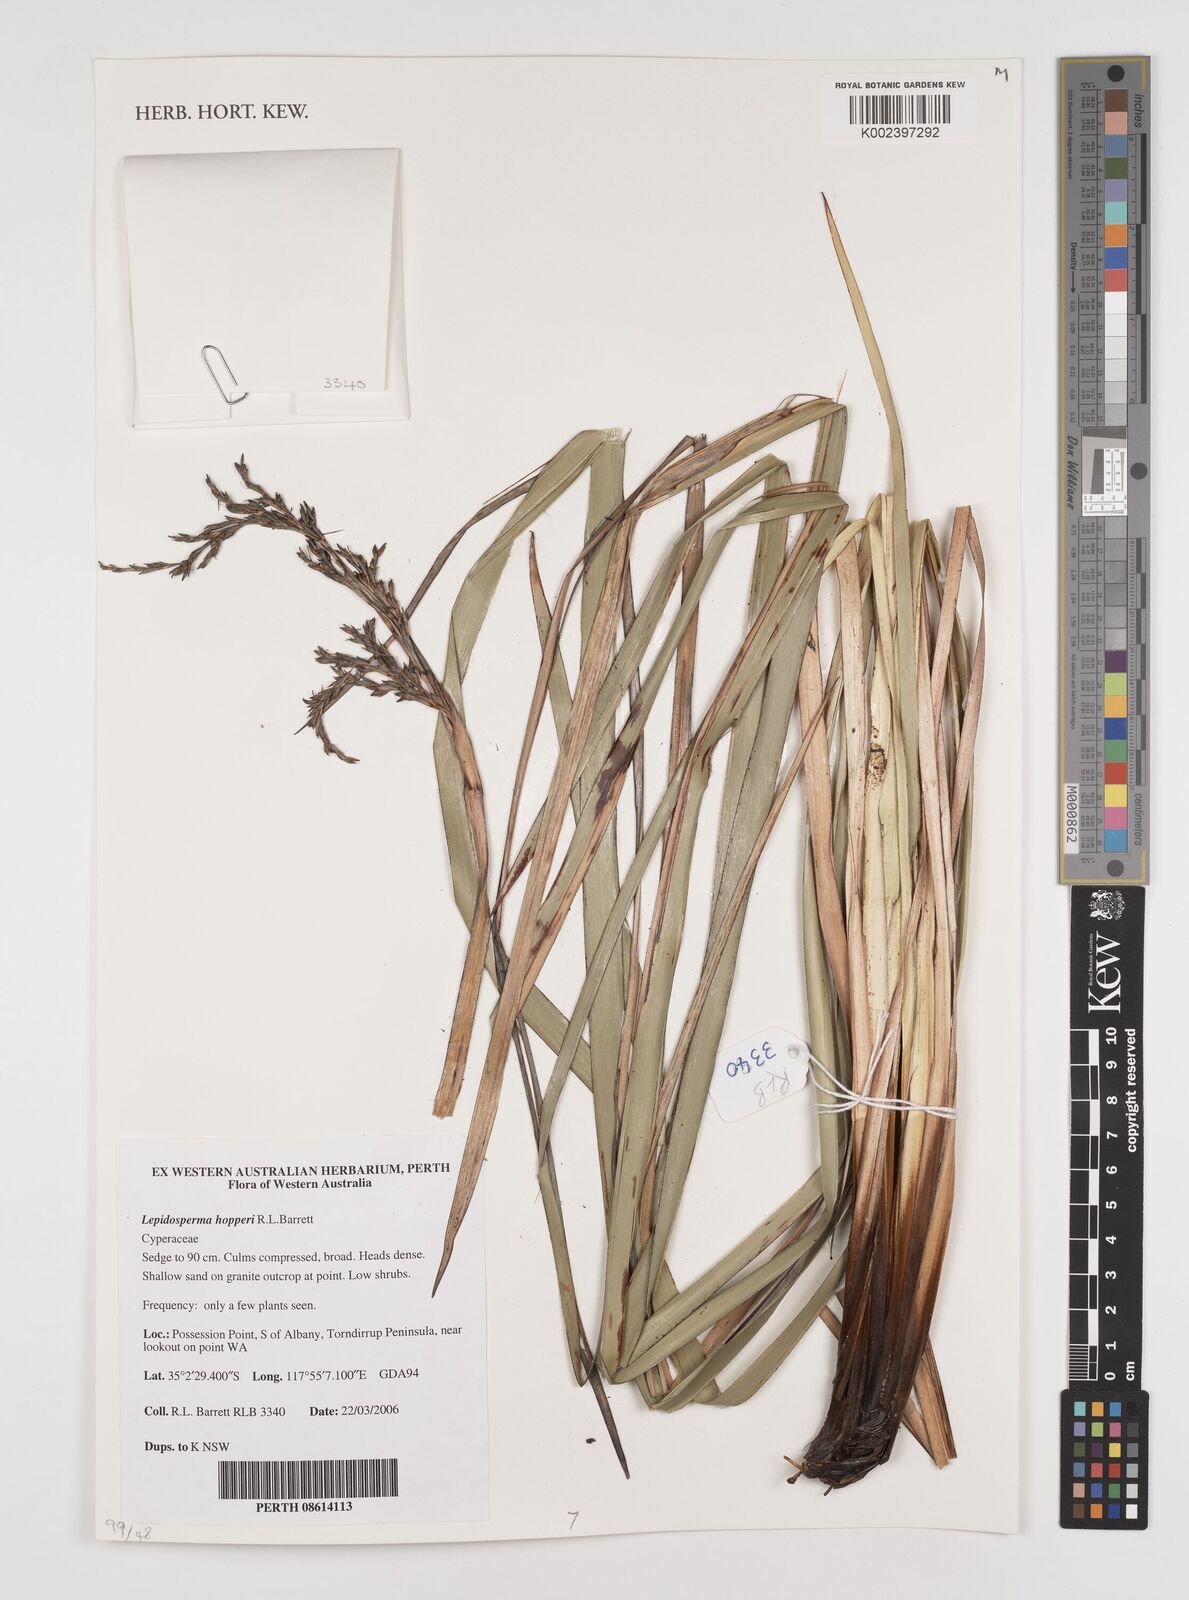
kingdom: Plantae
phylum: Tracheophyta
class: Liliopsida
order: Poales
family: Cyperaceae
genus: Lepidosperma
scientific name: Lepidosperma hopperi
